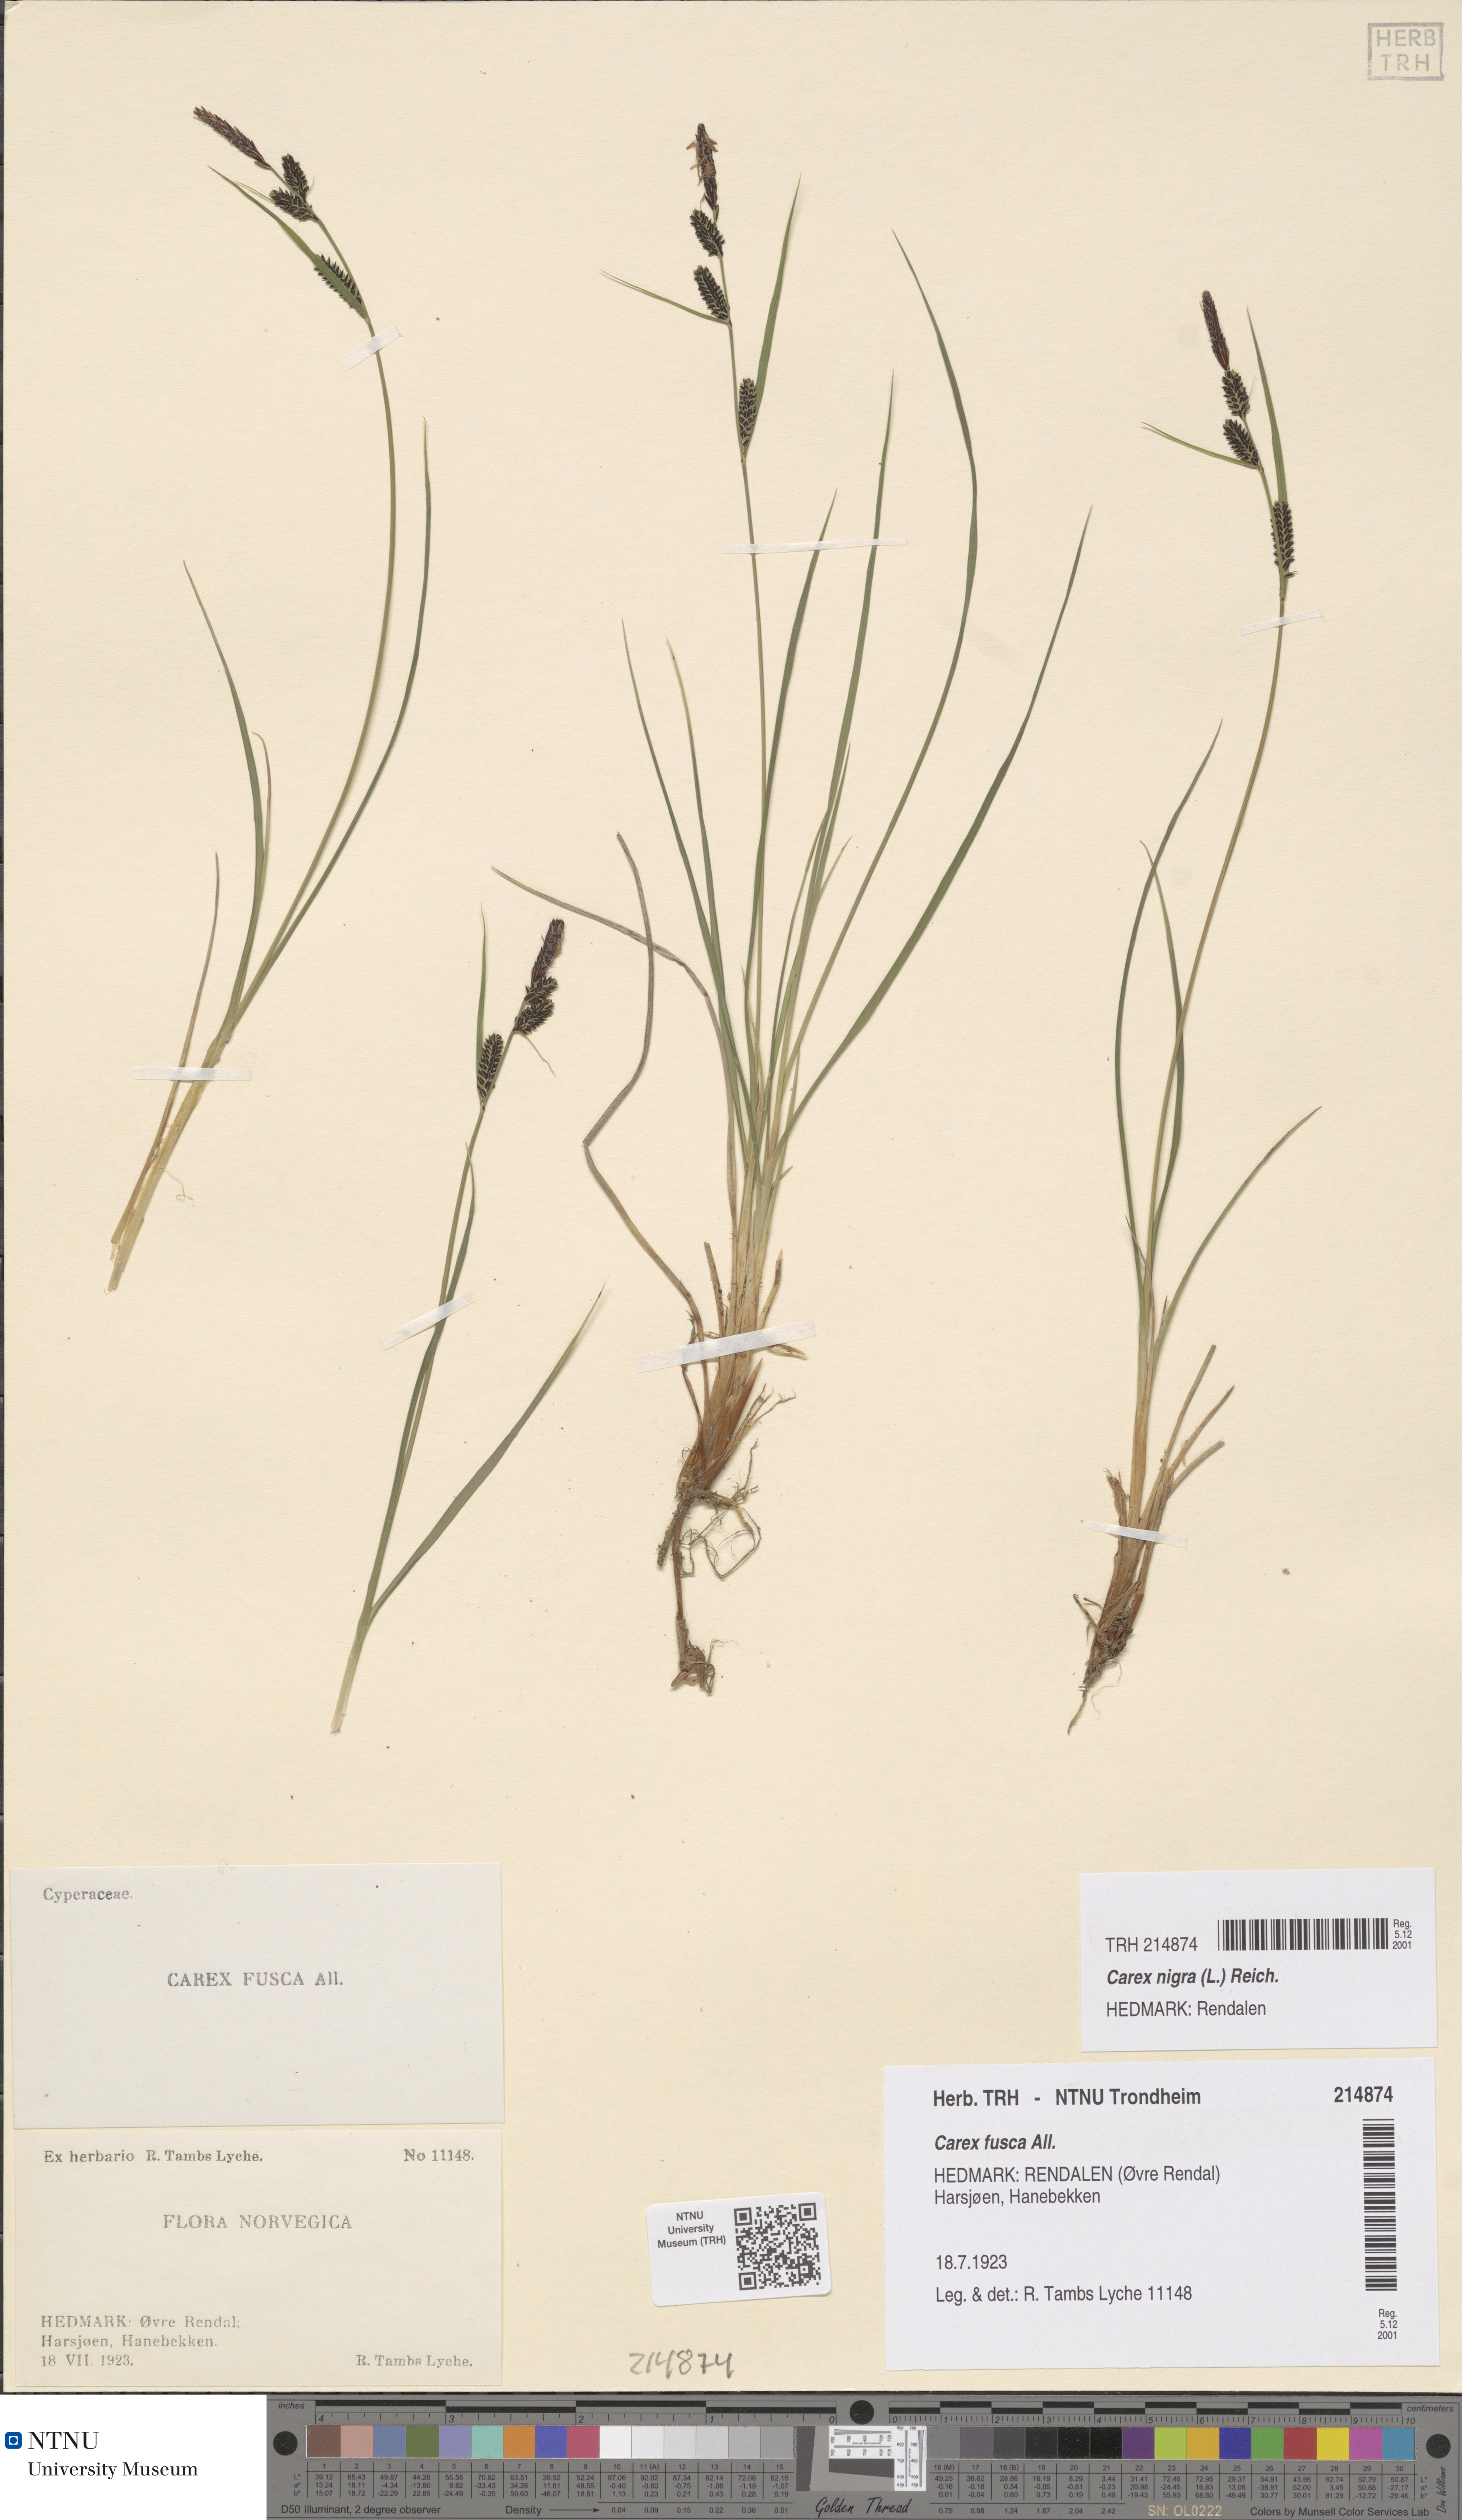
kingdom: Plantae
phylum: Tracheophyta
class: Liliopsida
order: Poales
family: Cyperaceae
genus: Carex
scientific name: Carex nigra
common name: Common sedge
